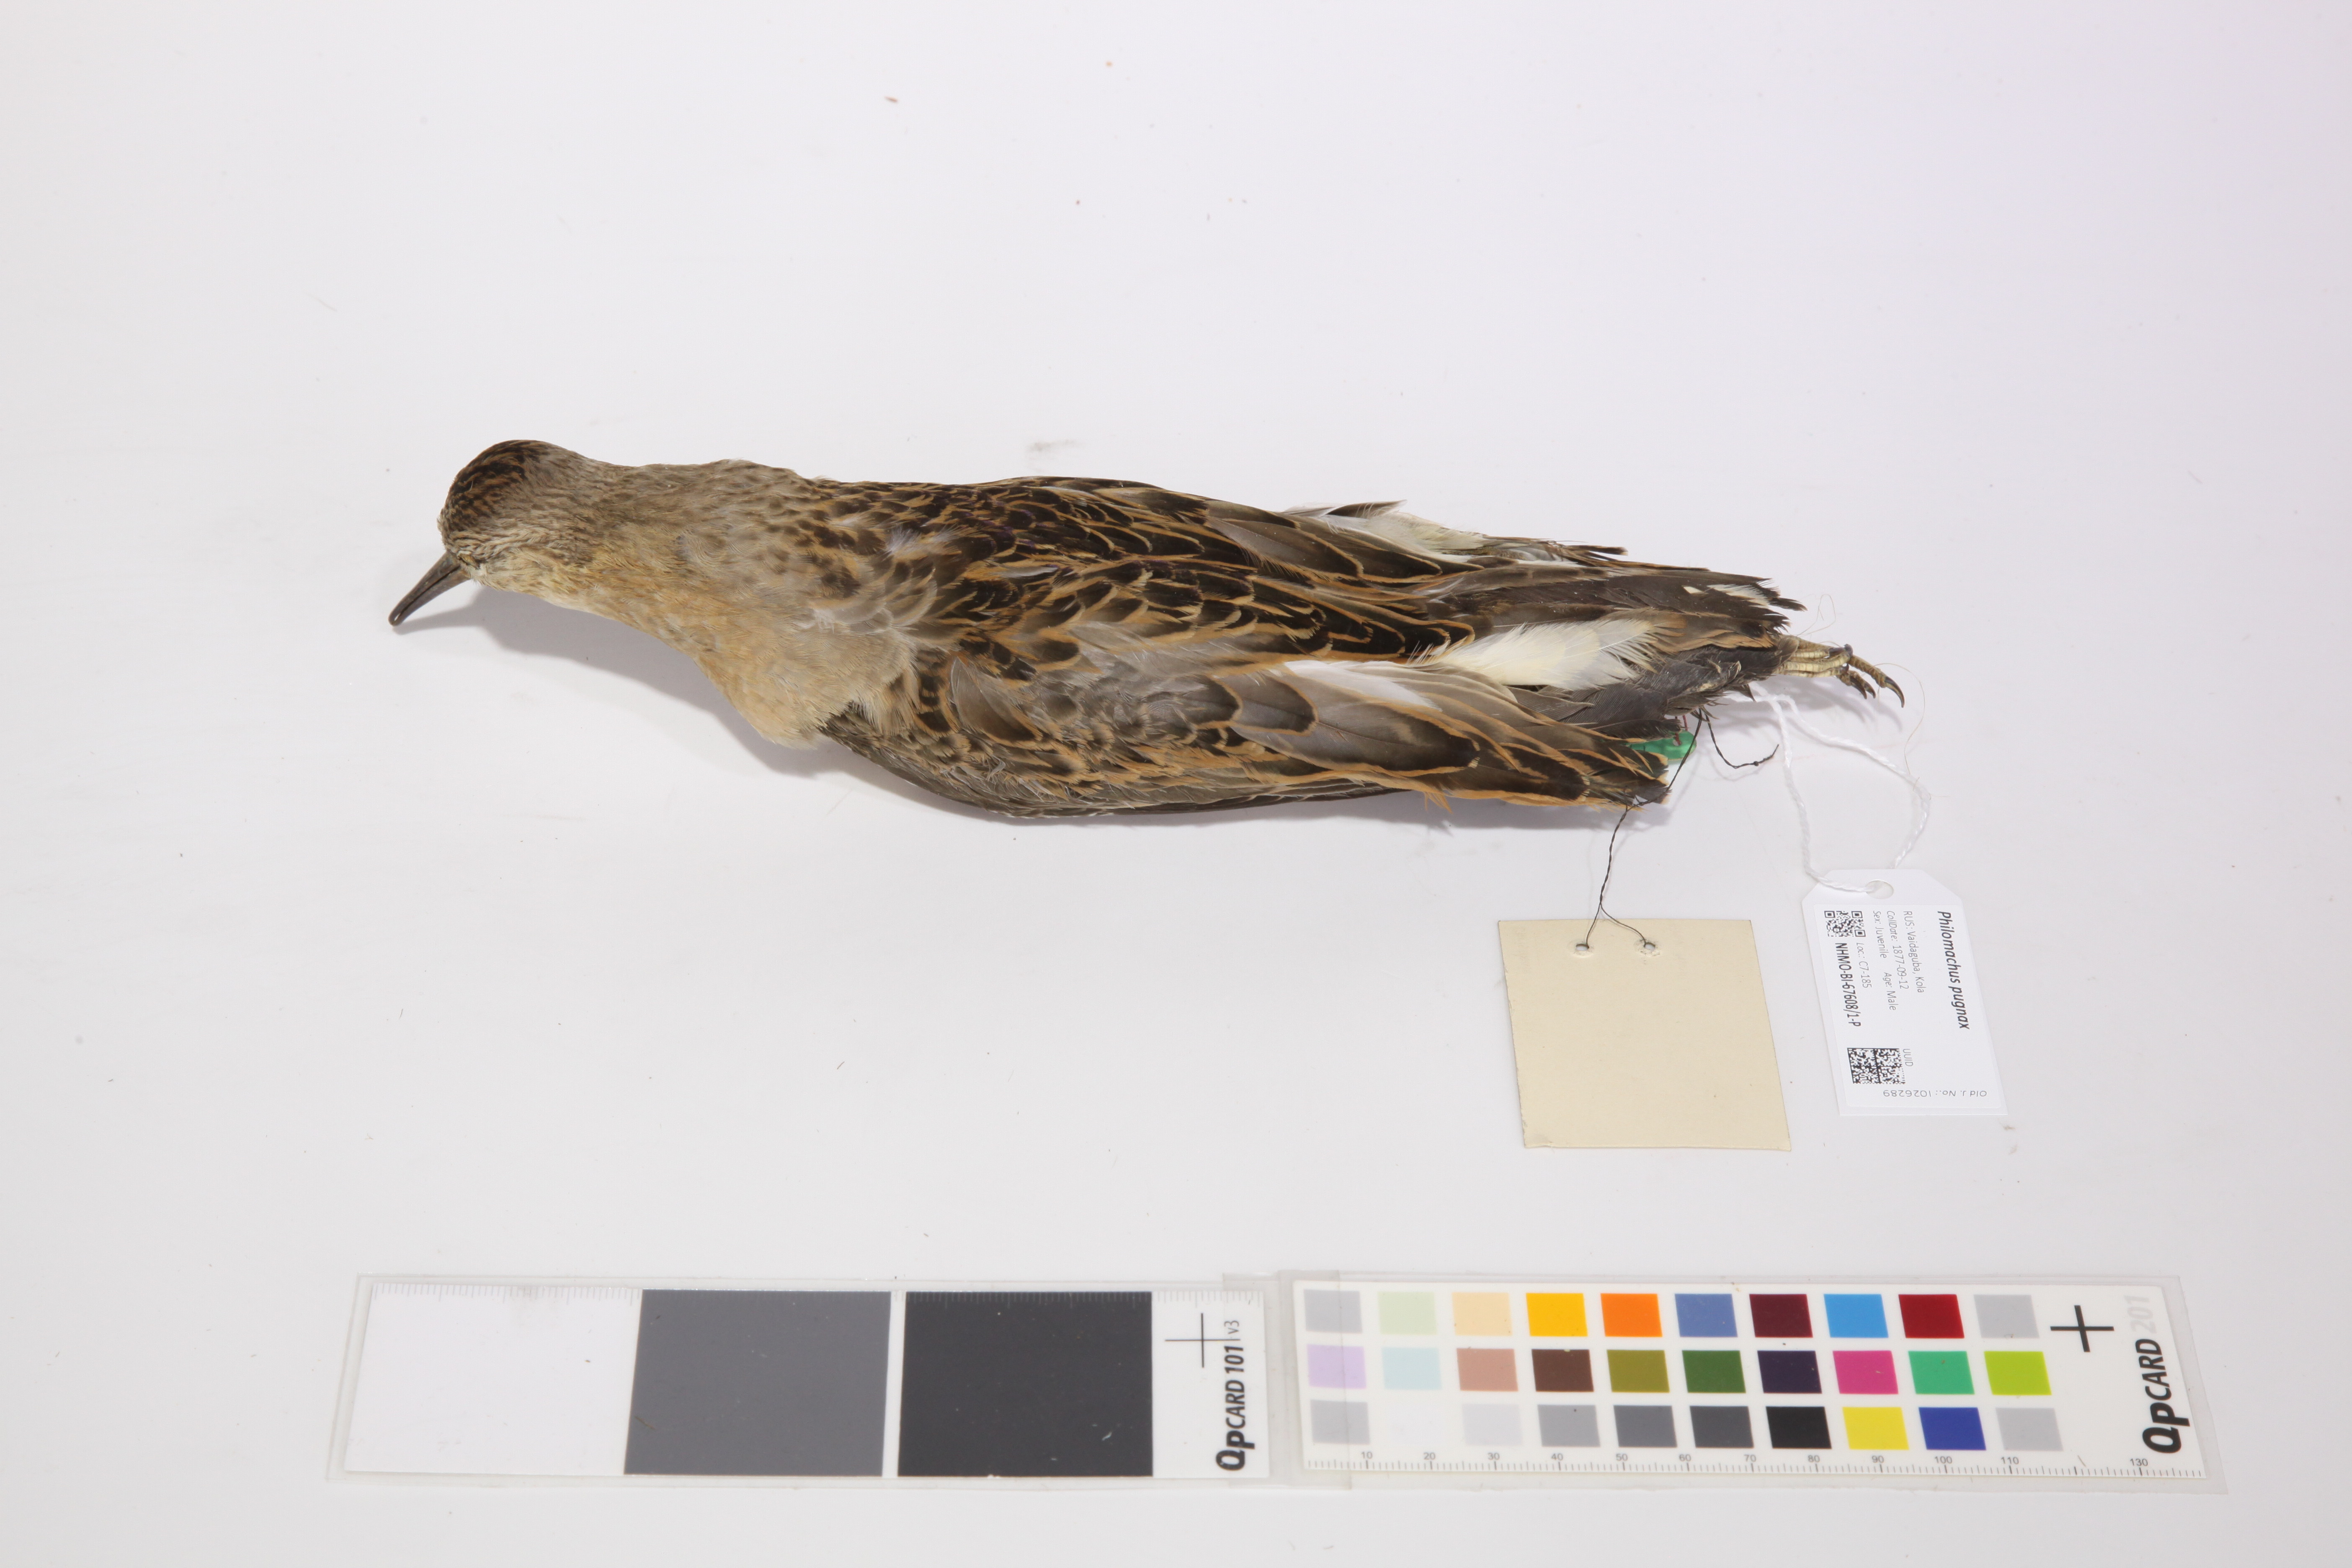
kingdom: Animalia
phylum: Chordata
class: Aves
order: Charadriiformes
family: Scolopacidae
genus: Calidris
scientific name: Calidris pugnax
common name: Ruff
